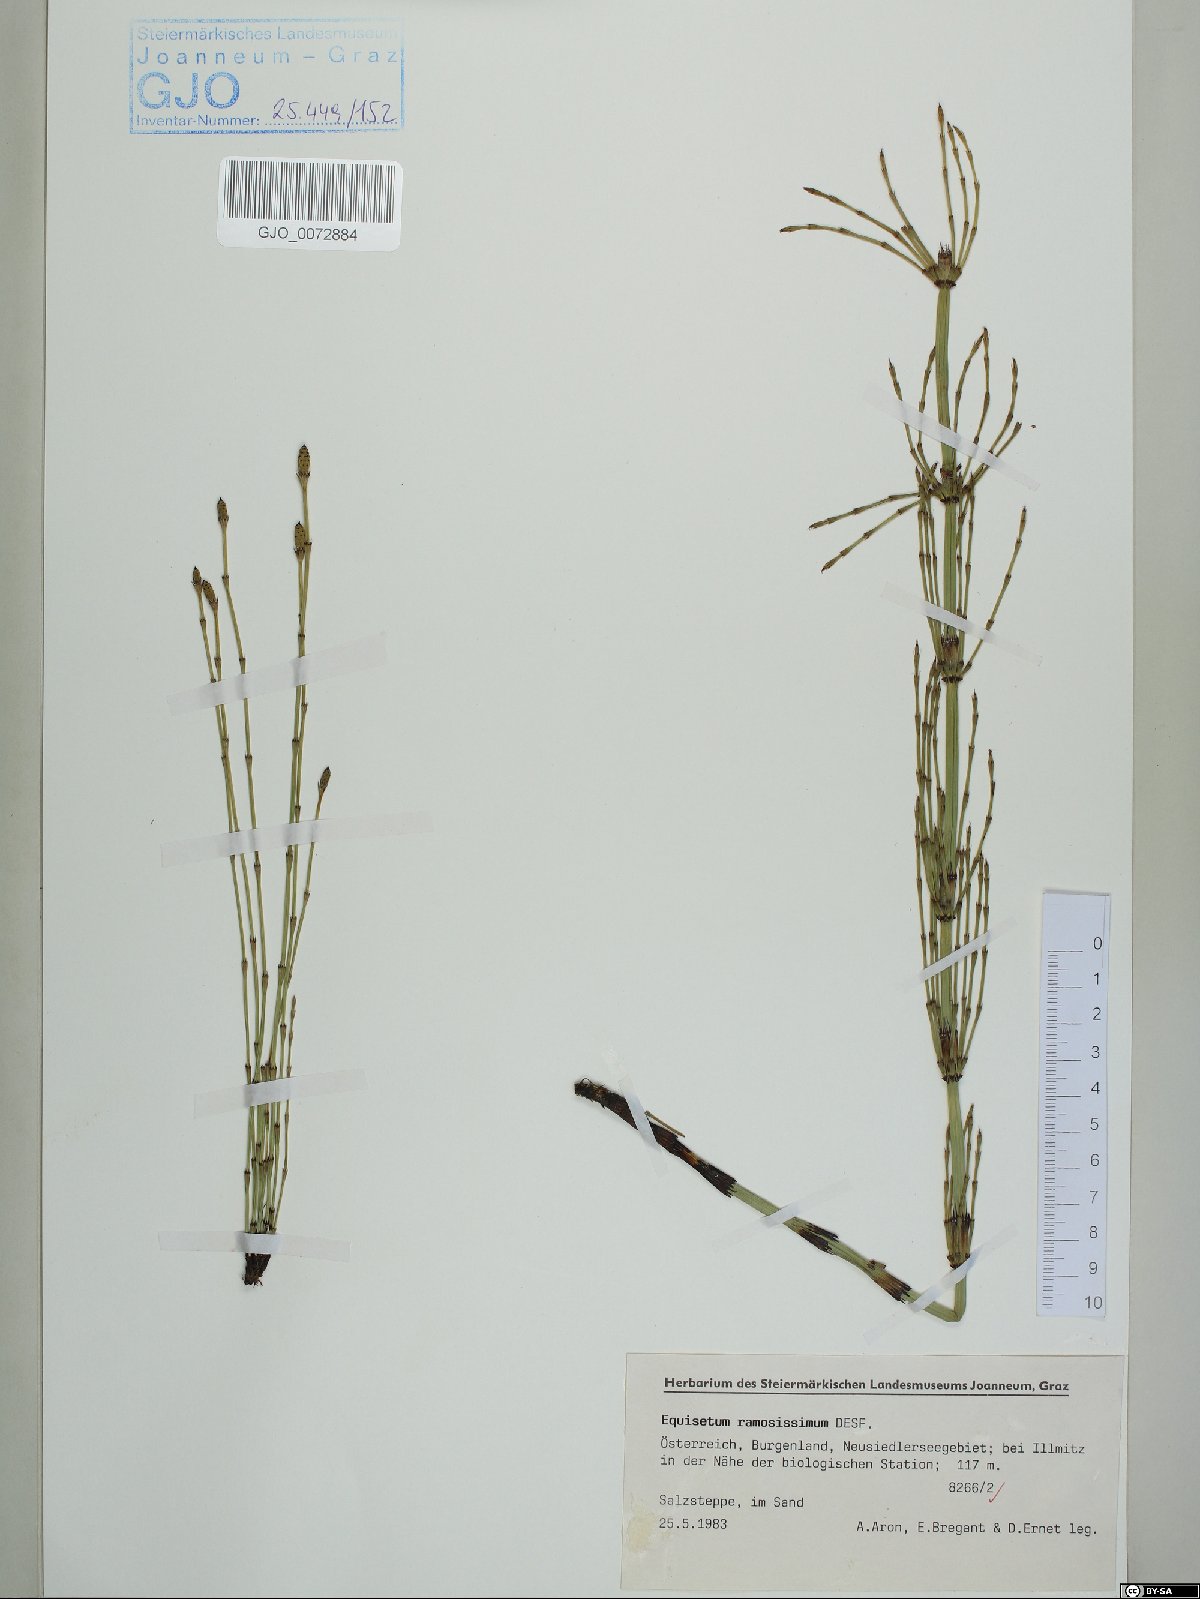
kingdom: Plantae
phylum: Tracheophyta
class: Polypodiopsida
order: Equisetales
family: Equisetaceae
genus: Equisetum
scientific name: Equisetum ramosissimum
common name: Branched horsetail
